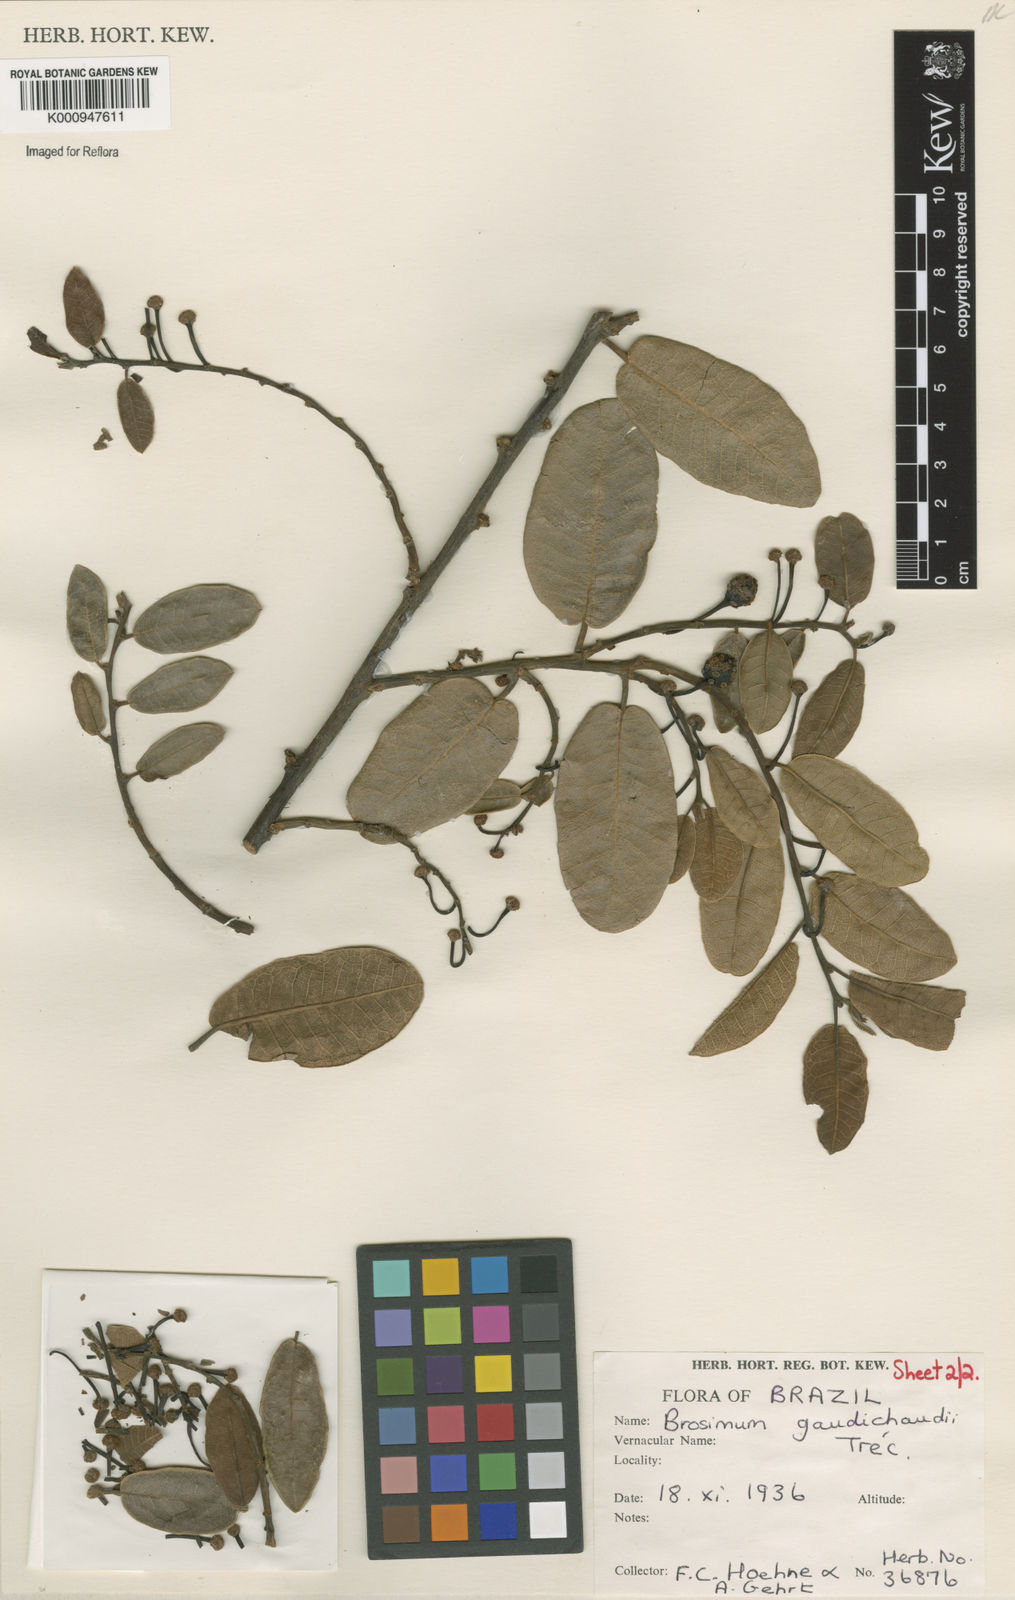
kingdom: Plantae
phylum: Tracheophyta
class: Magnoliopsida
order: Rosales
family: Moraceae
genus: Brosimum
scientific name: Brosimum
